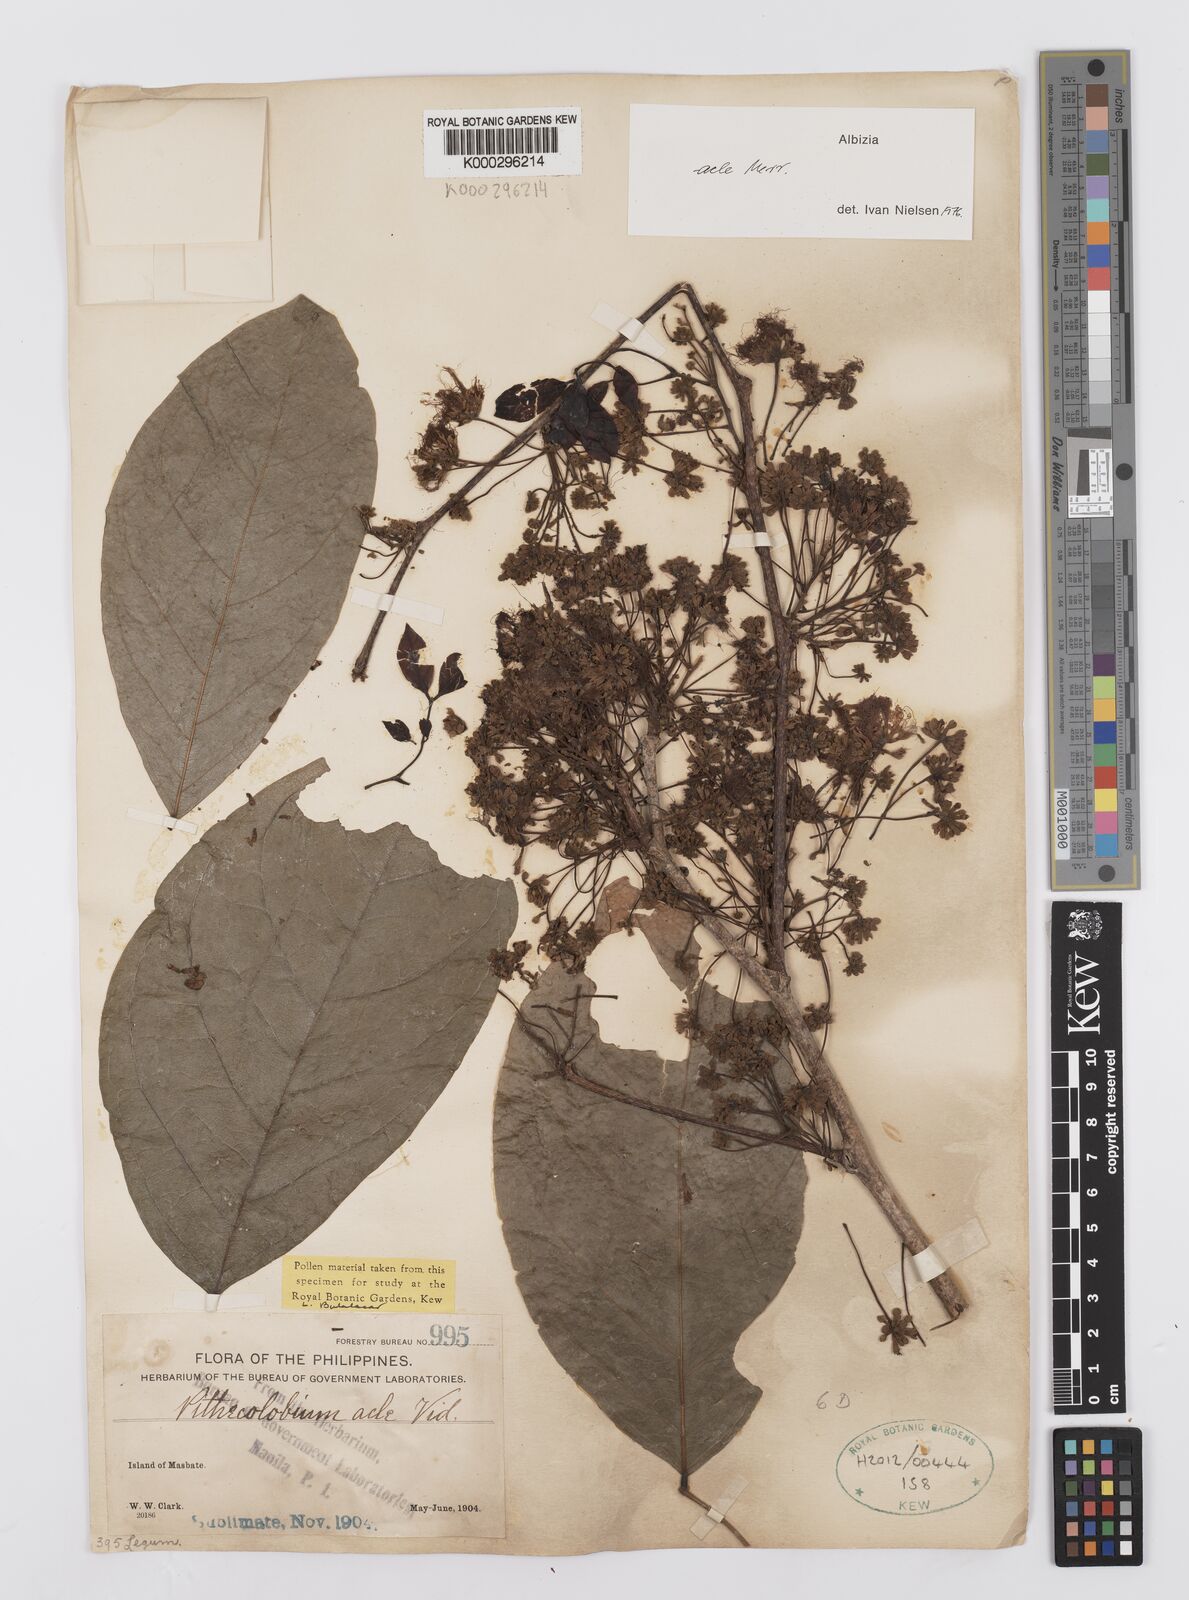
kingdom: Plantae
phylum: Tracheophyta
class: Magnoliopsida
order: Fabales
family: Fabaceae
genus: Albizia
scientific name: Albizia acle
